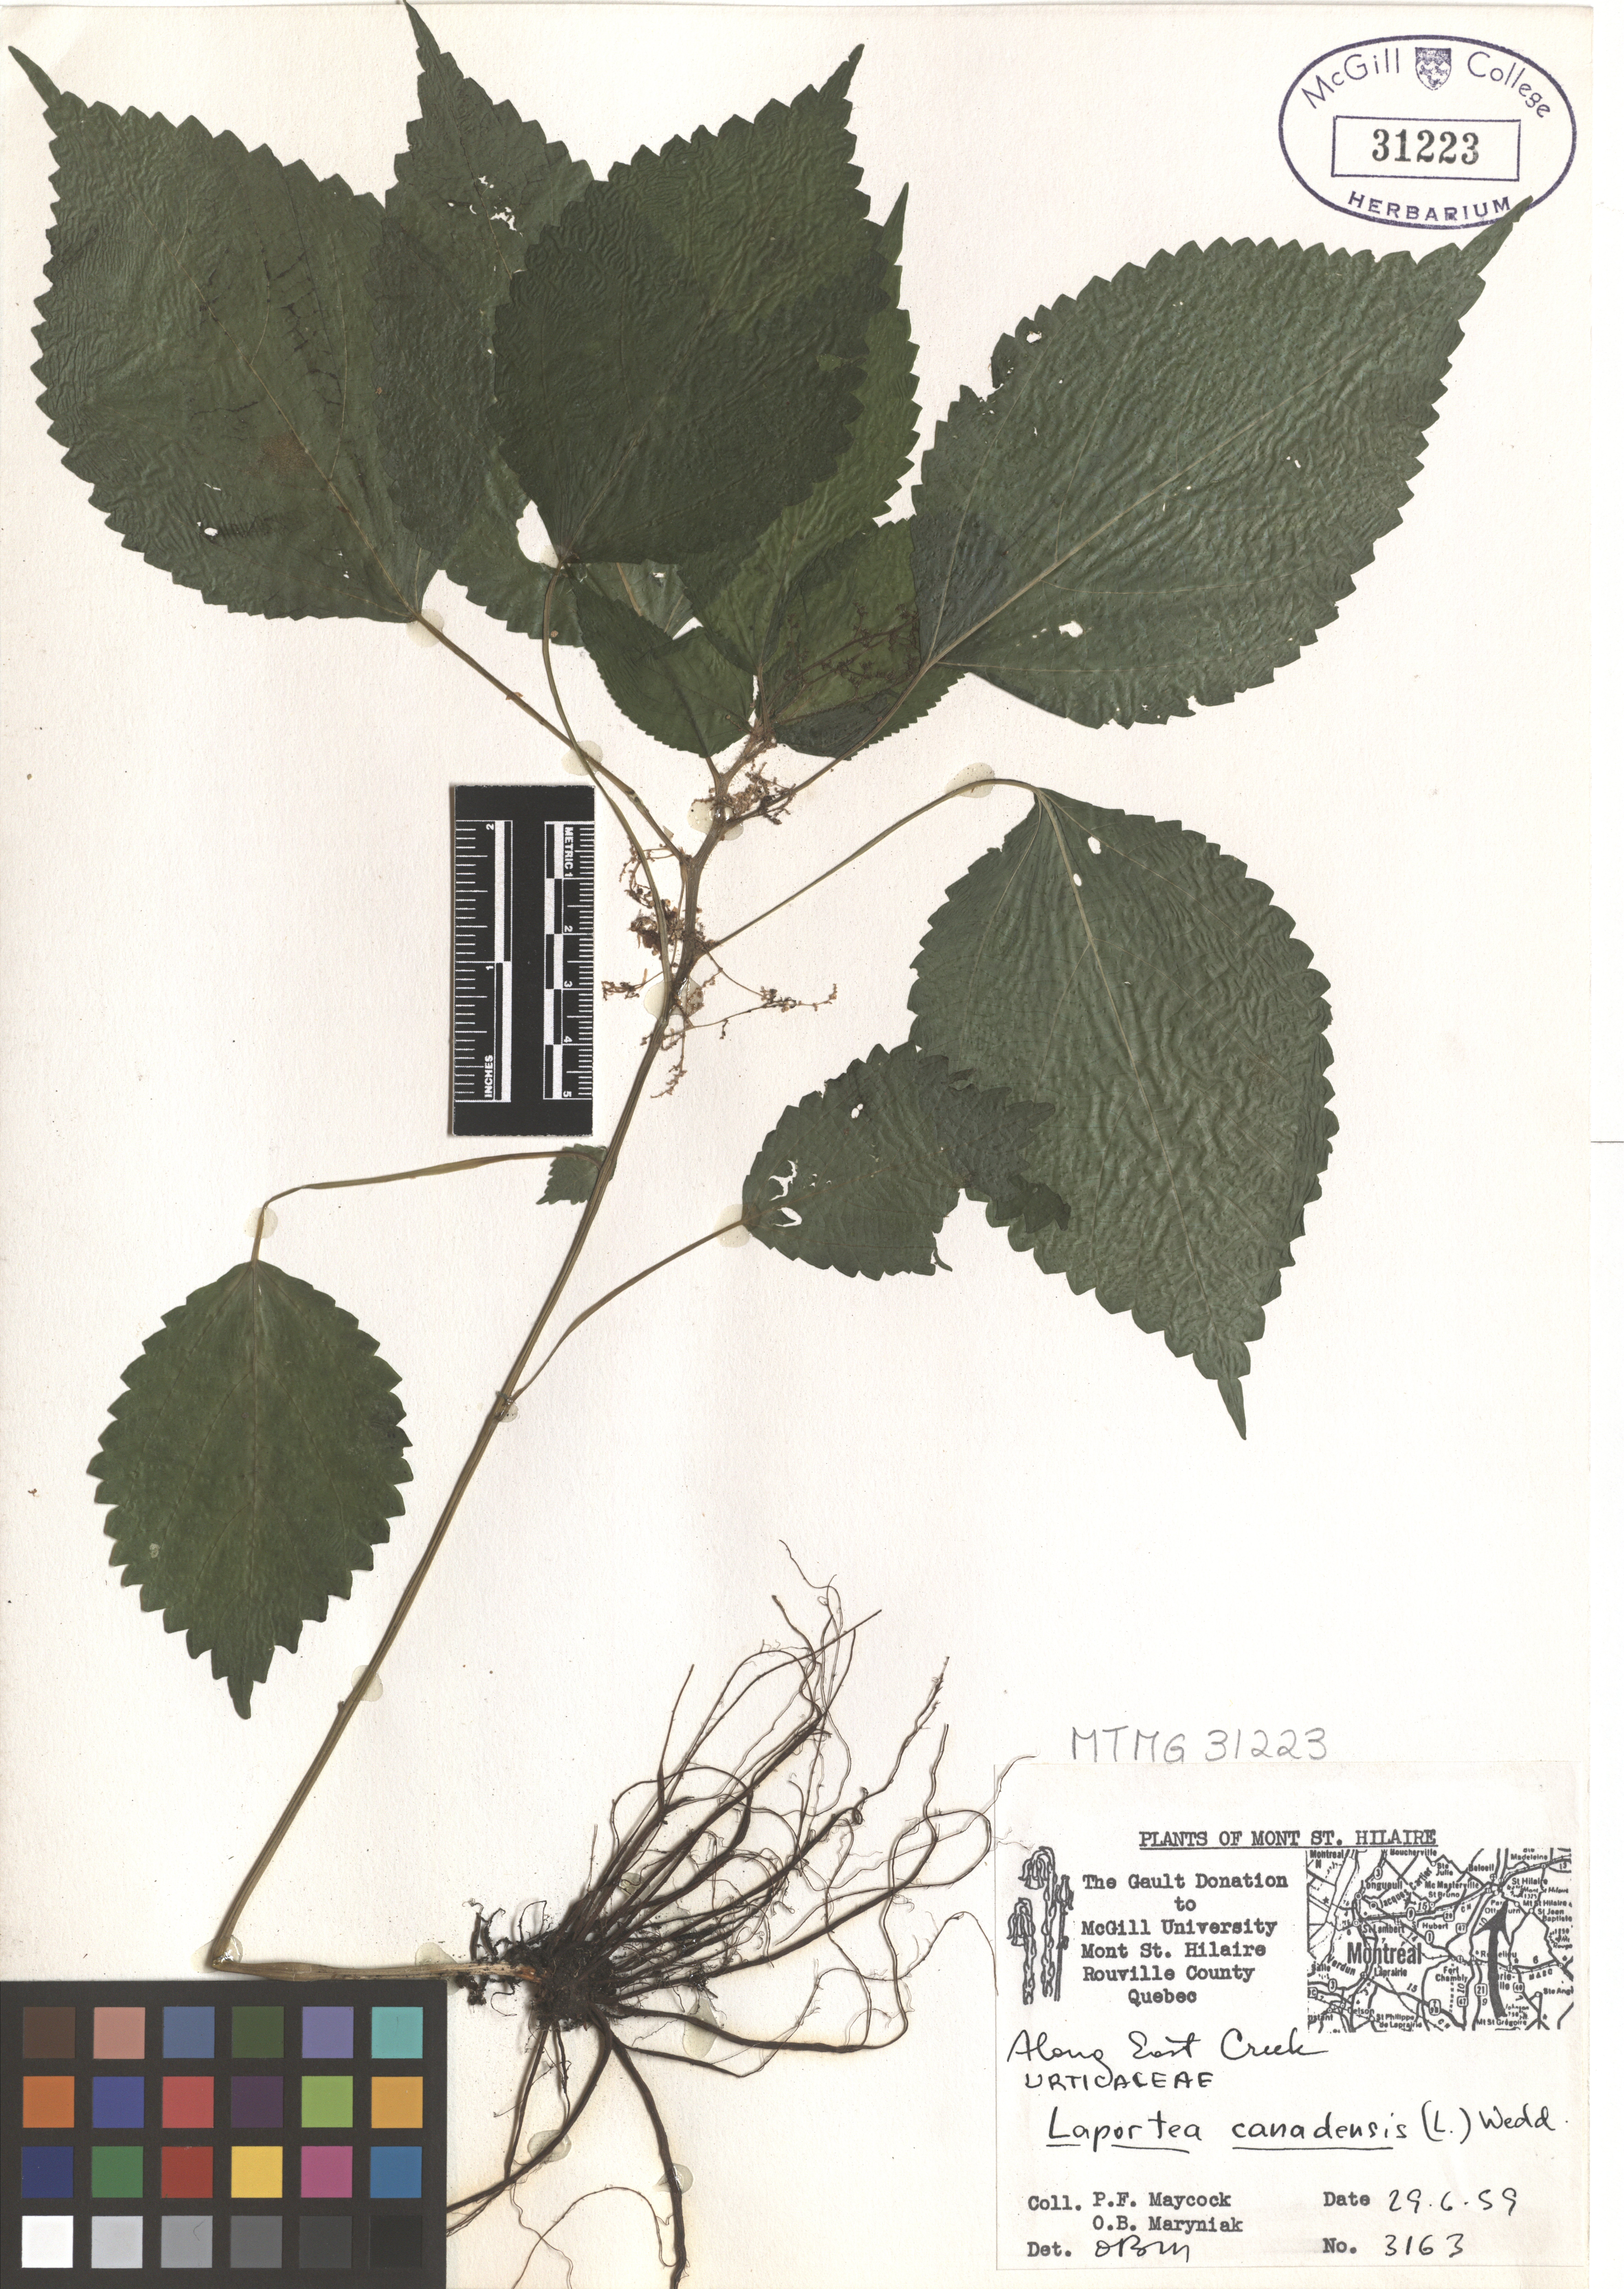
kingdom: Plantae
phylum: Tracheophyta
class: Magnoliopsida
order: Rosales
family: Urticaceae
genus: Laportea
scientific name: Laportea canadensis
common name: Canada nettle
